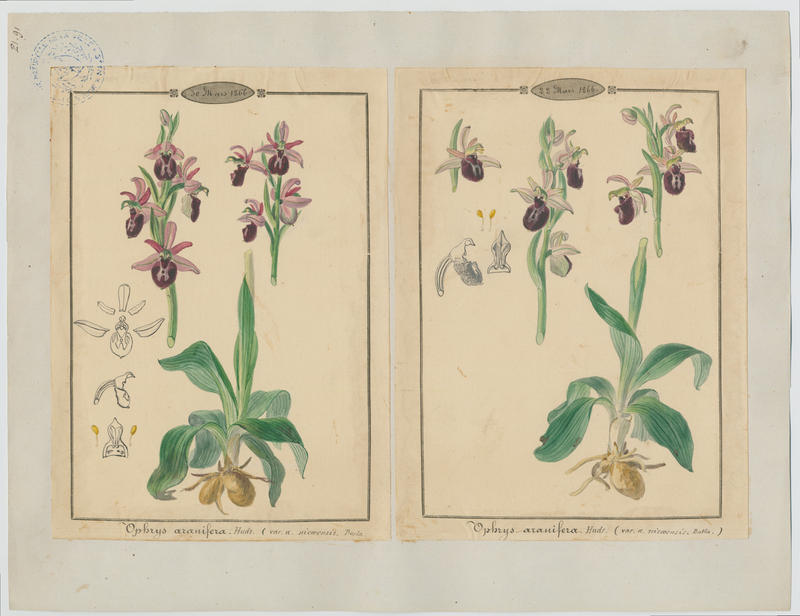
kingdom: Plantae
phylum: Tracheophyta
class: Liliopsida
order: Asparagales
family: Orchidaceae
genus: Ophrys
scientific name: Ophrys sphegodes
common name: Early spider-orchid
